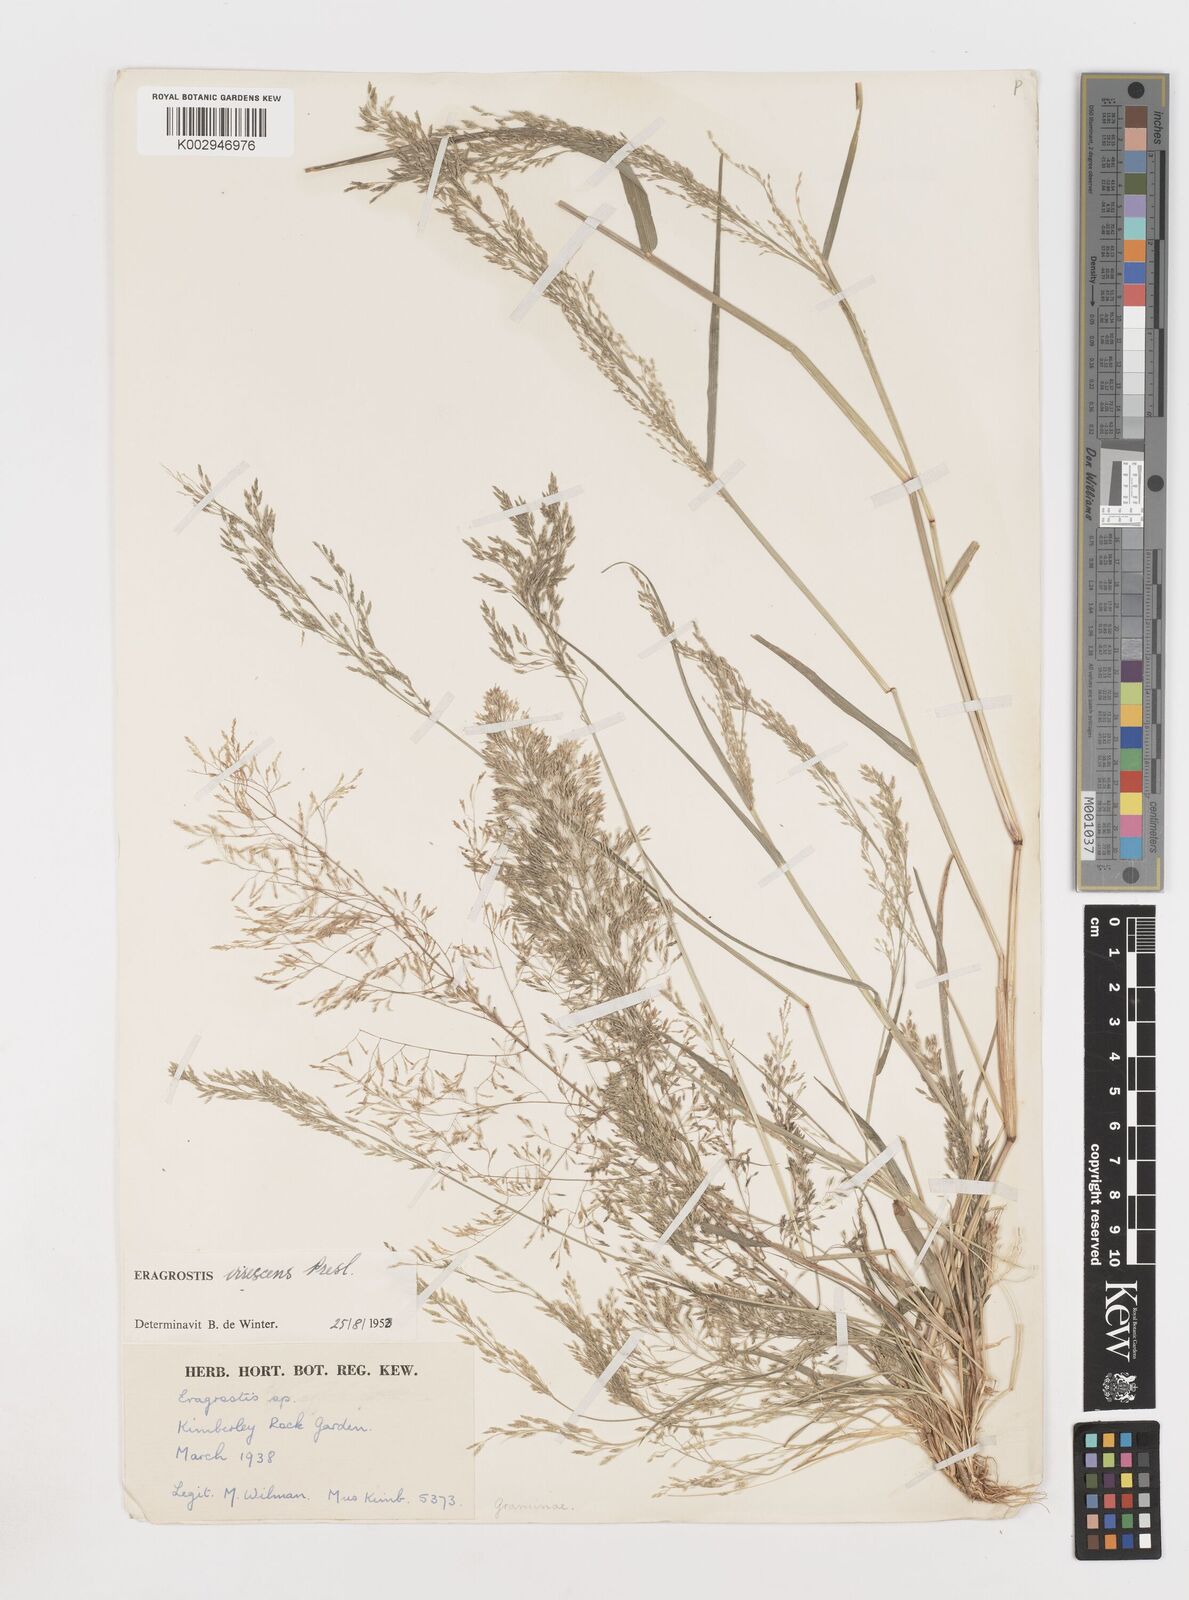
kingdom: Plantae
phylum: Tracheophyta
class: Liliopsida
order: Poales
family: Poaceae
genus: Eragrostis
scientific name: Eragrostis
